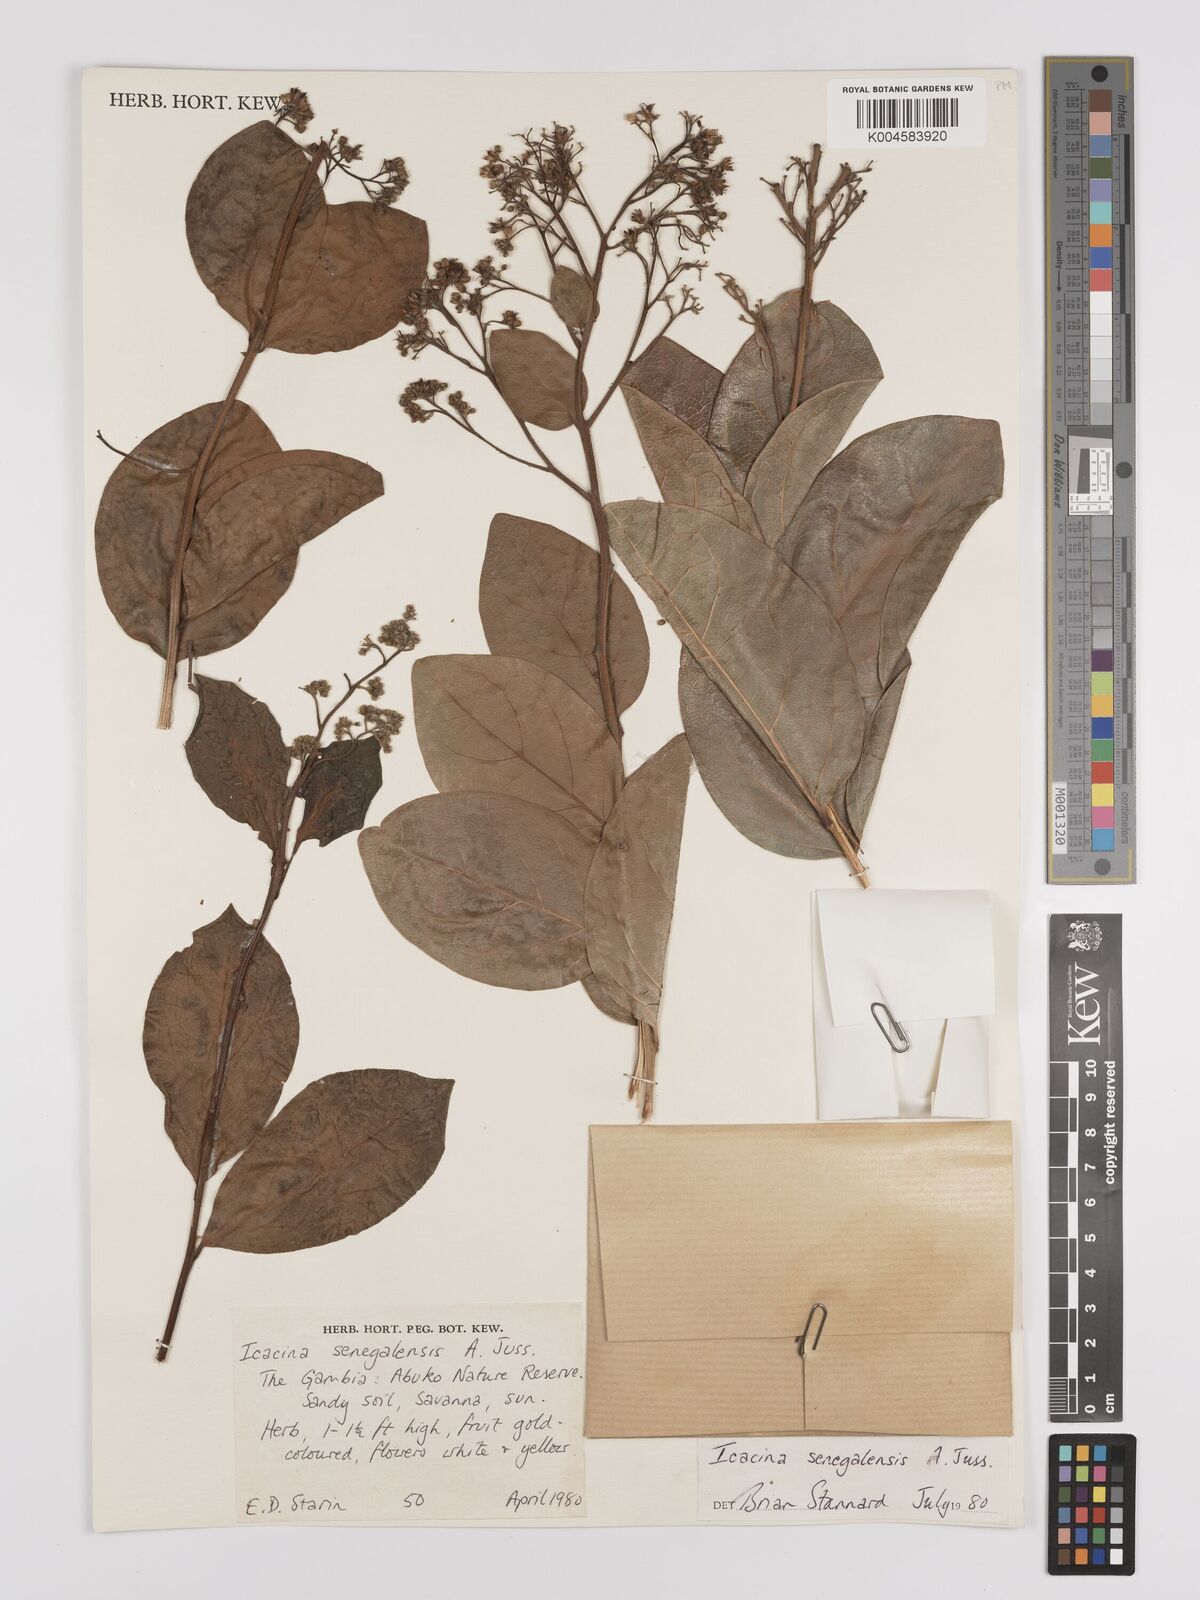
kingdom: Plantae
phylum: Tracheophyta
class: Magnoliopsida
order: Icacinales
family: Icacinaceae
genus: Icacina
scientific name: Icacina oliviformis
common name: False yam
